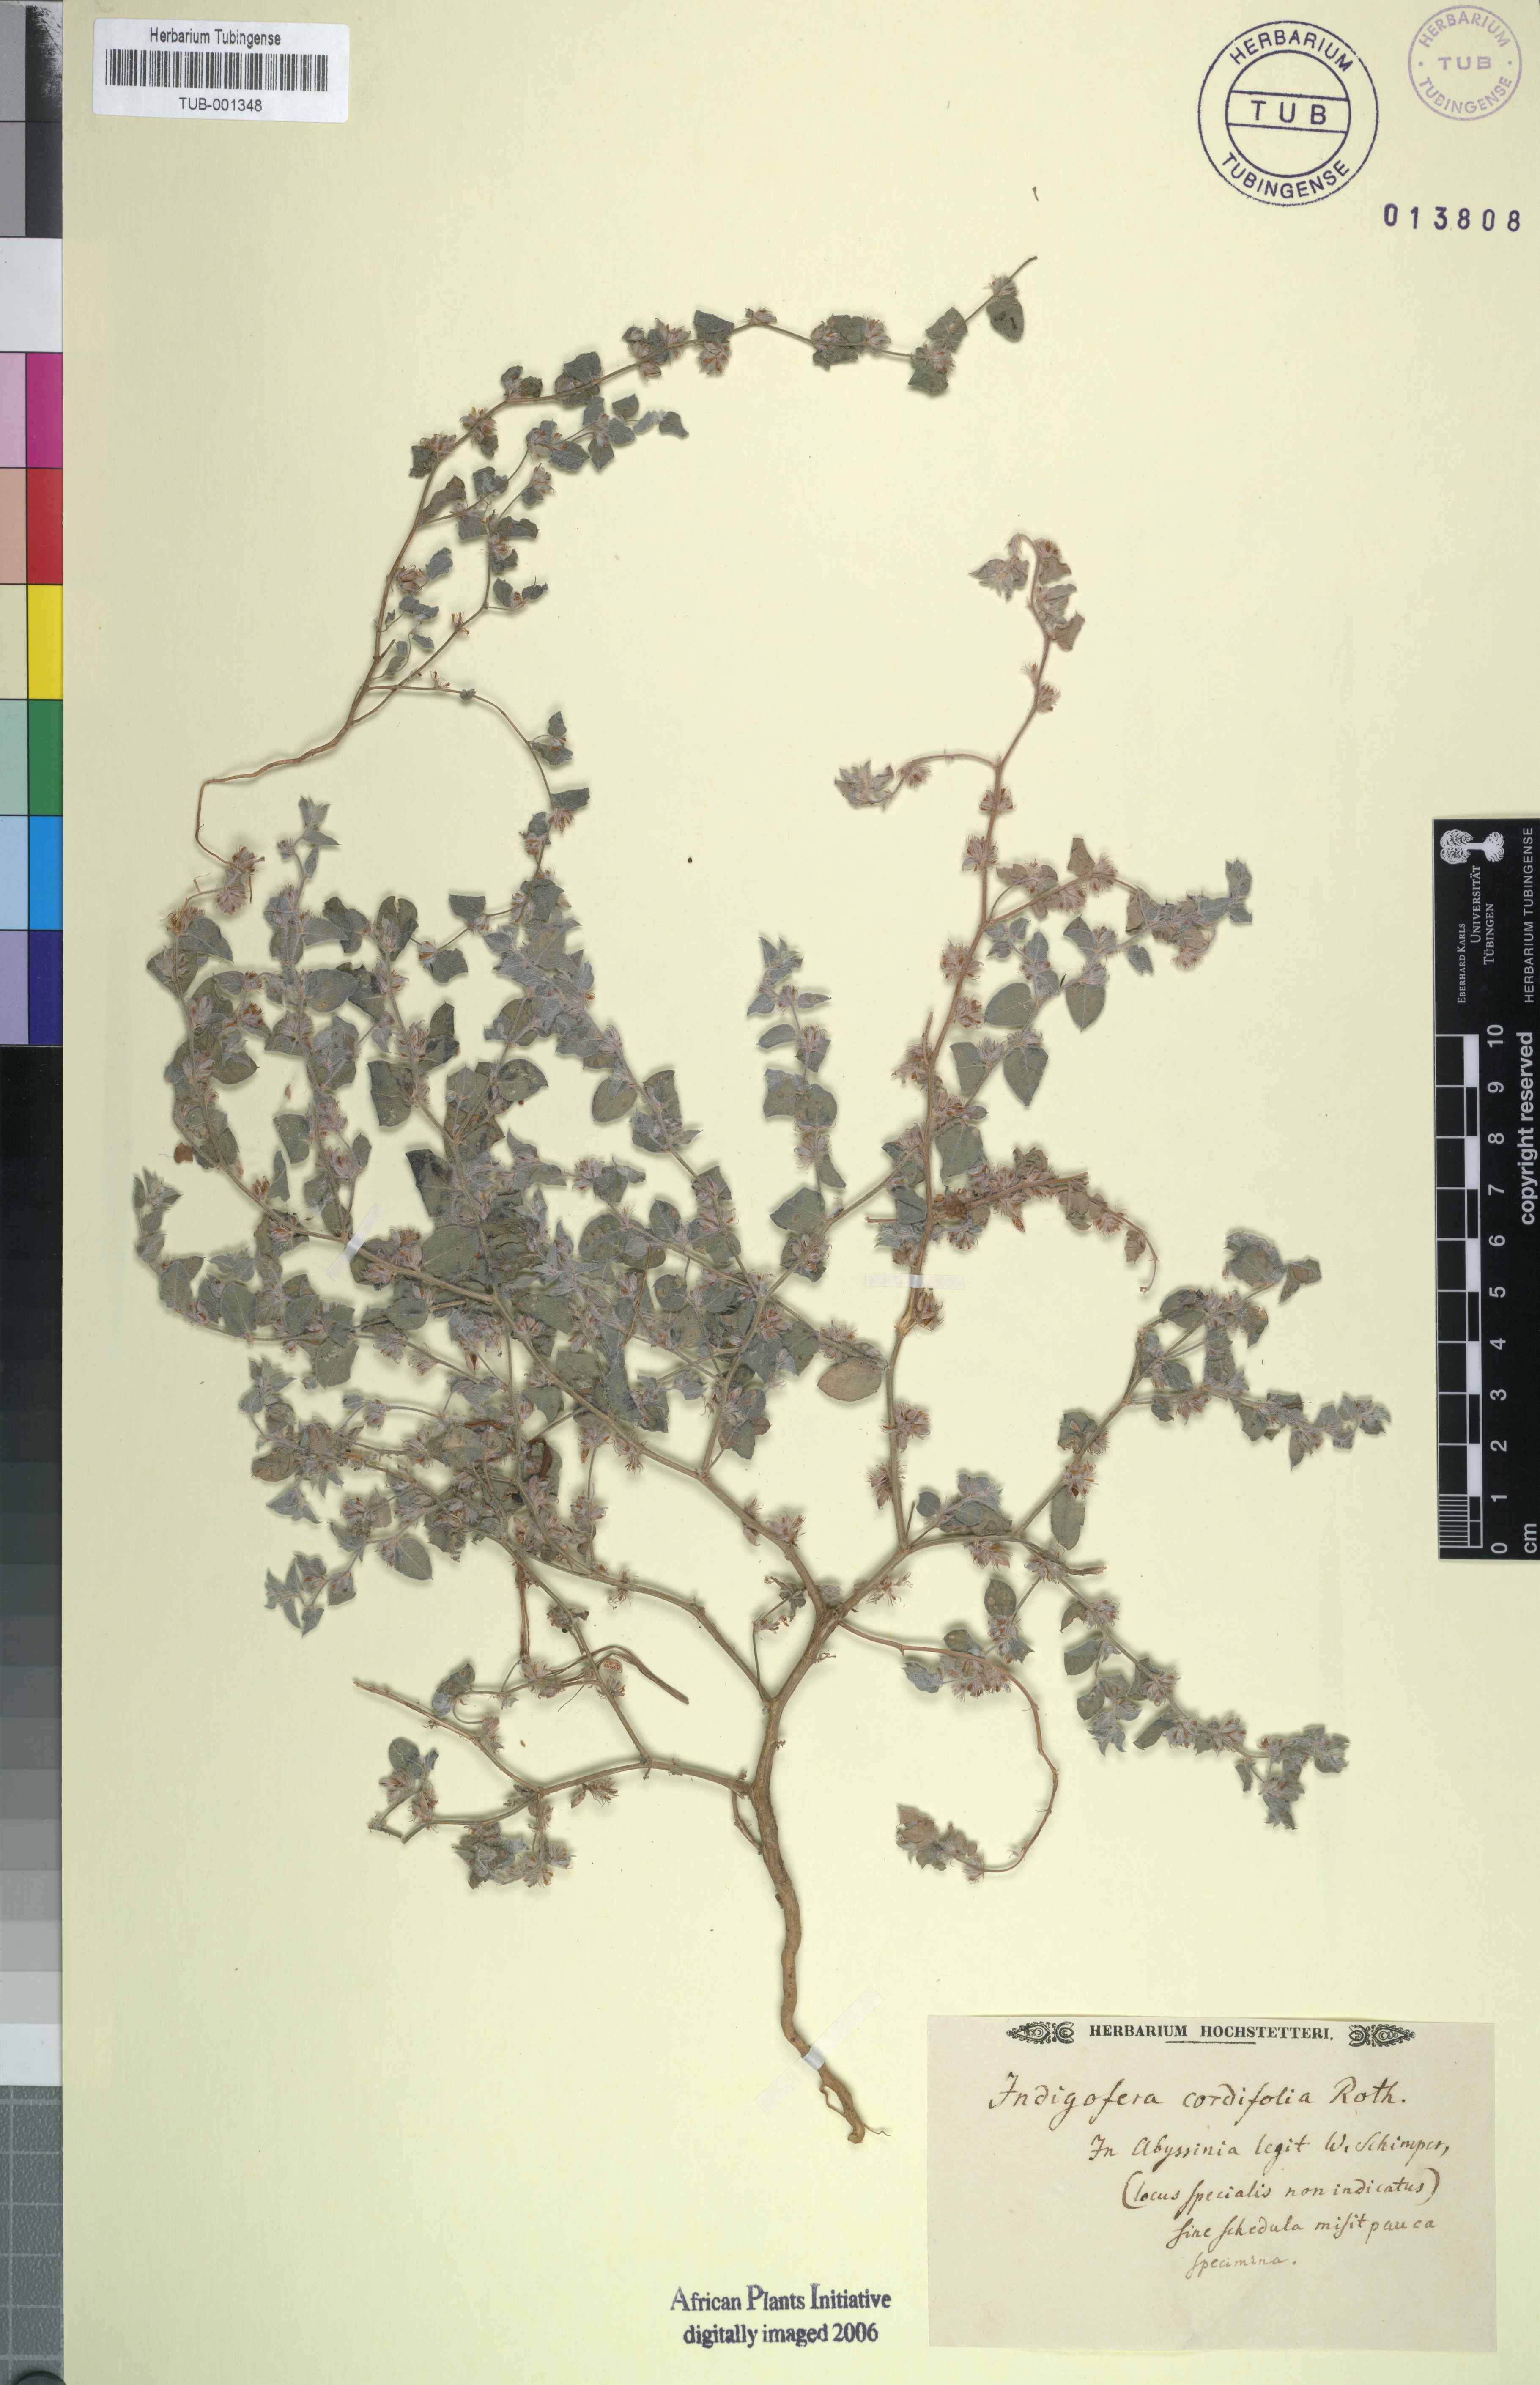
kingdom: Plantae
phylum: Tracheophyta
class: Magnoliopsida
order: Fabales
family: Fabaceae
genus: Indigofera
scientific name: Indigofera cordifolia
